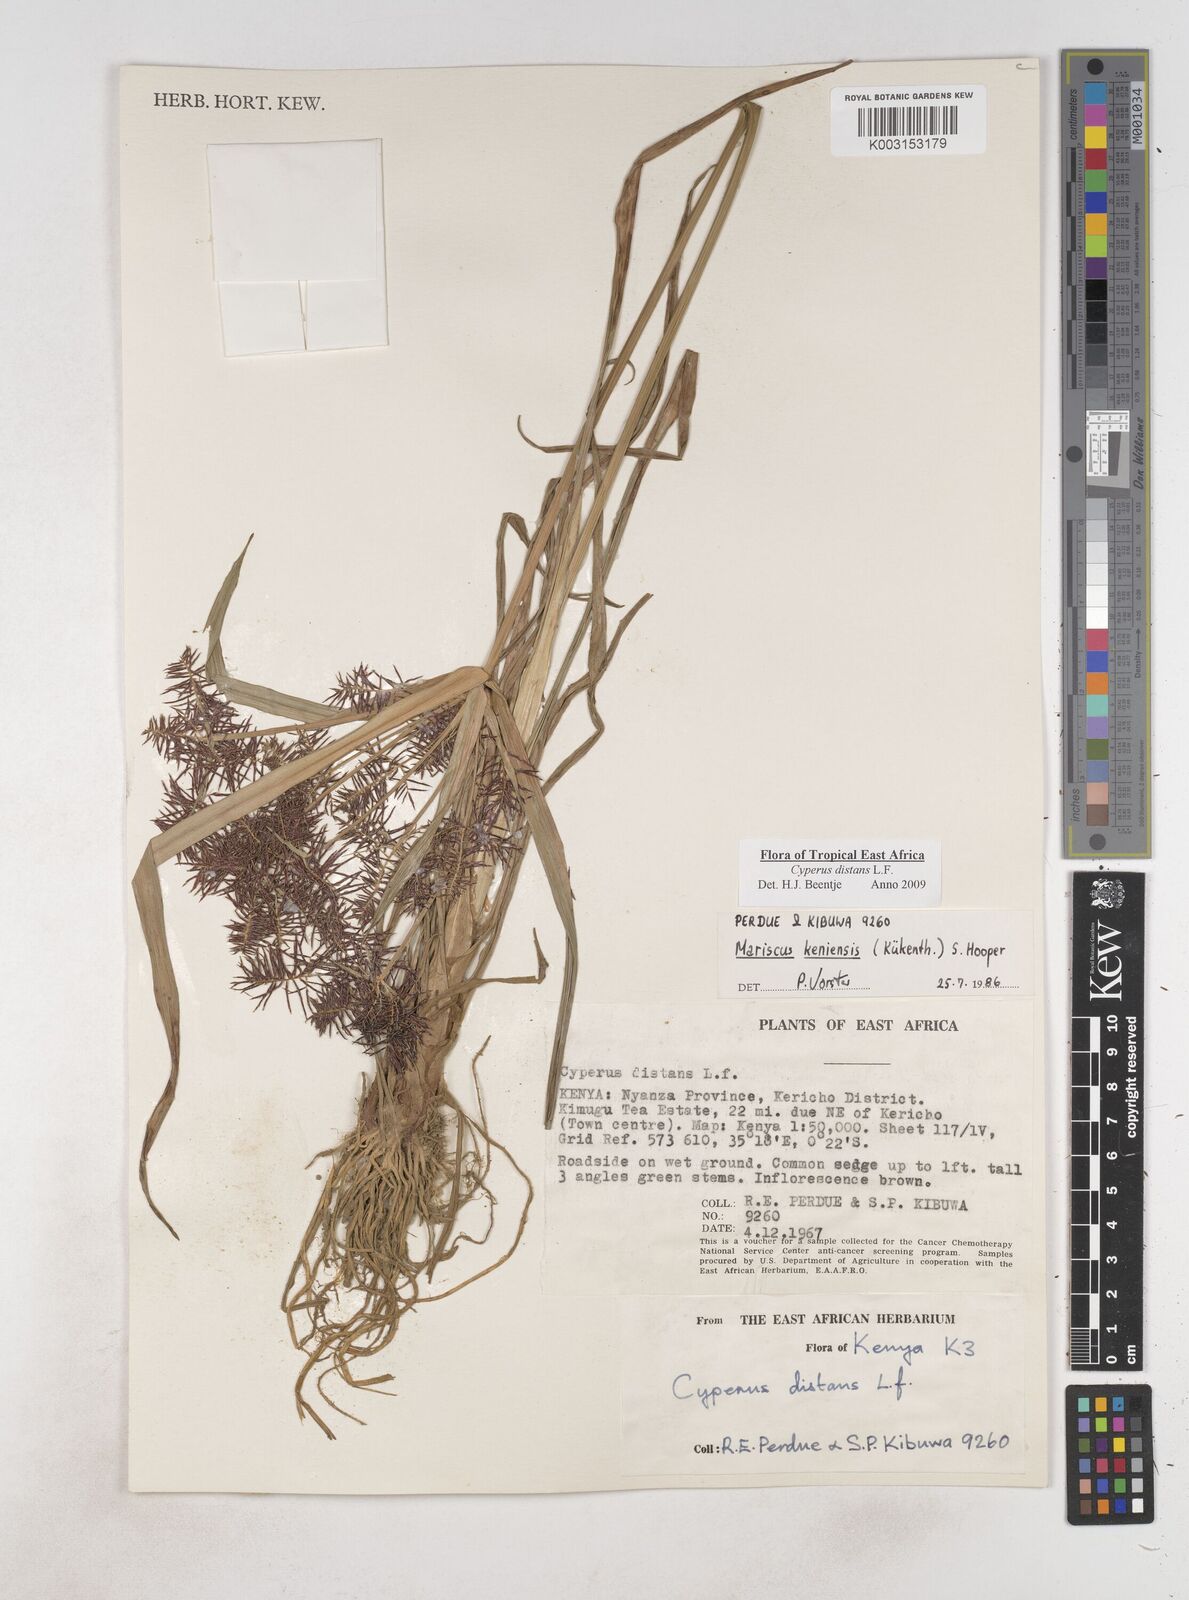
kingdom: Plantae
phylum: Tracheophyta
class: Liliopsida
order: Poales
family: Cyperaceae
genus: Cyperus
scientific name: Cyperus distans
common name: Slender cyperus
